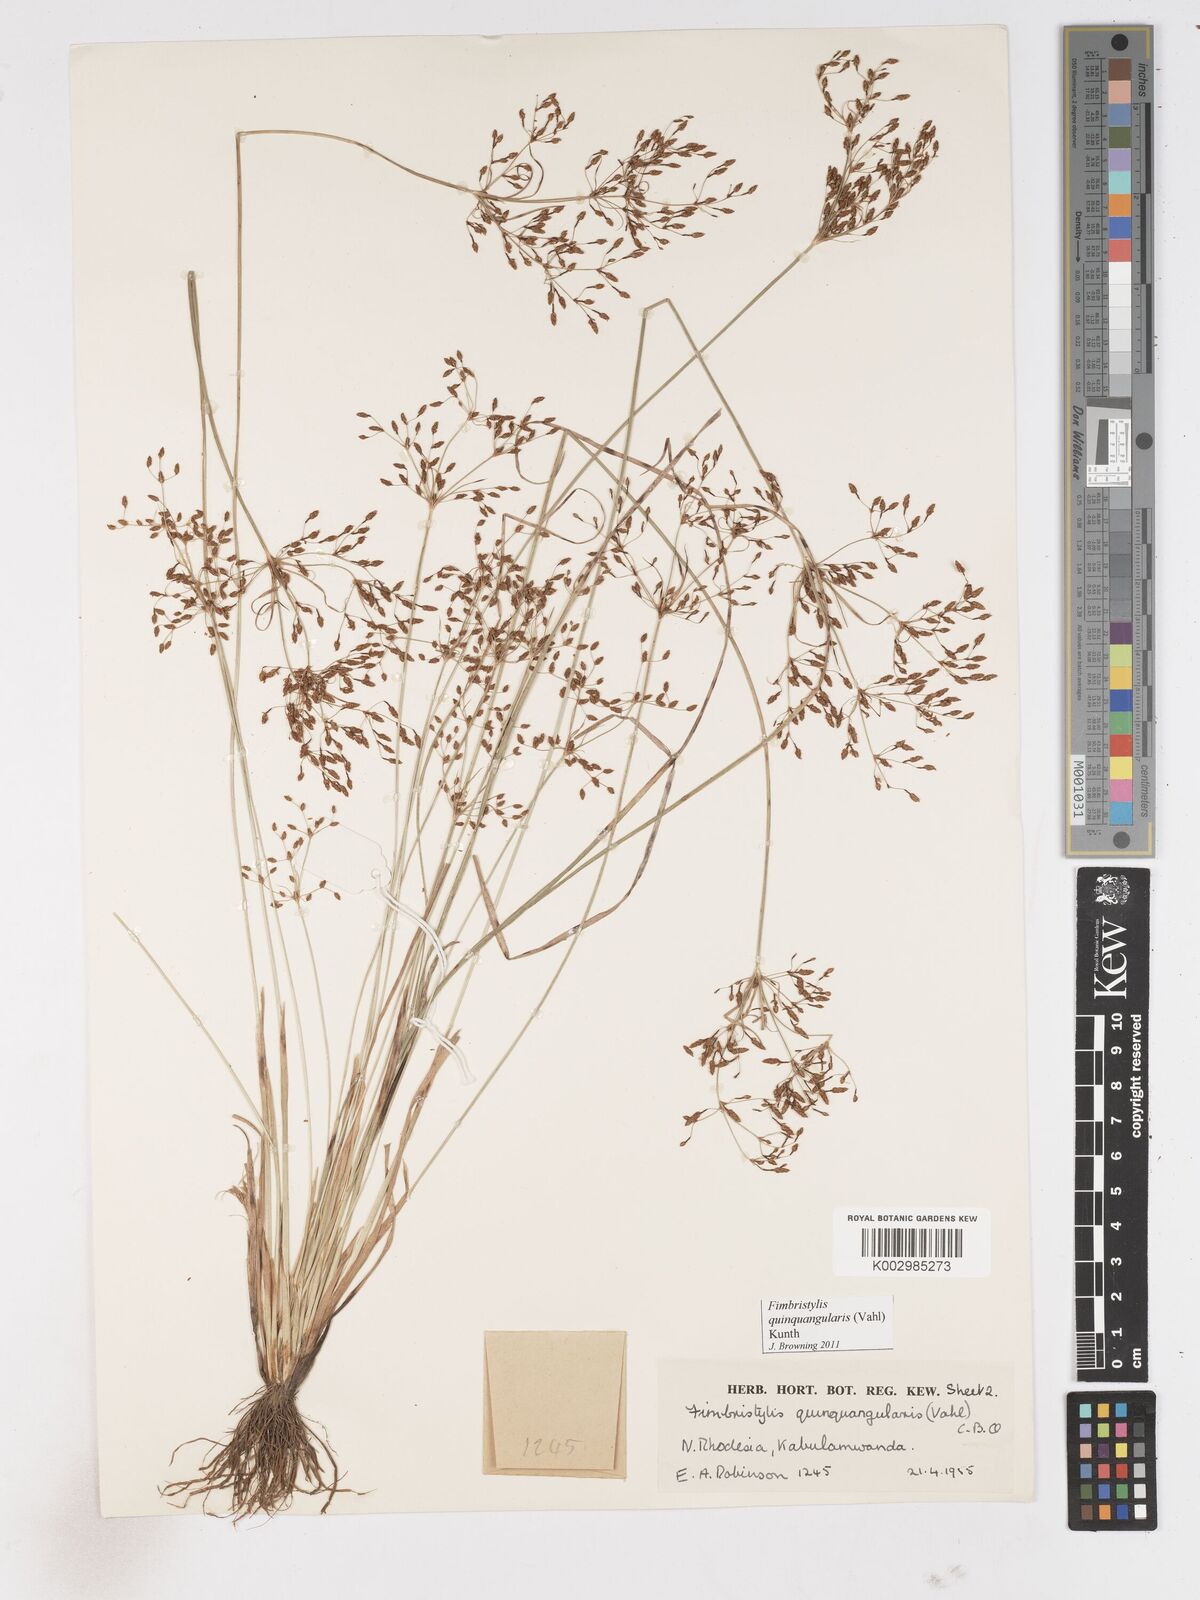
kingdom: Plantae
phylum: Tracheophyta
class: Liliopsida
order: Poales
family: Cyperaceae
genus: Fimbristylis
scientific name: Fimbristylis quinquangularis
